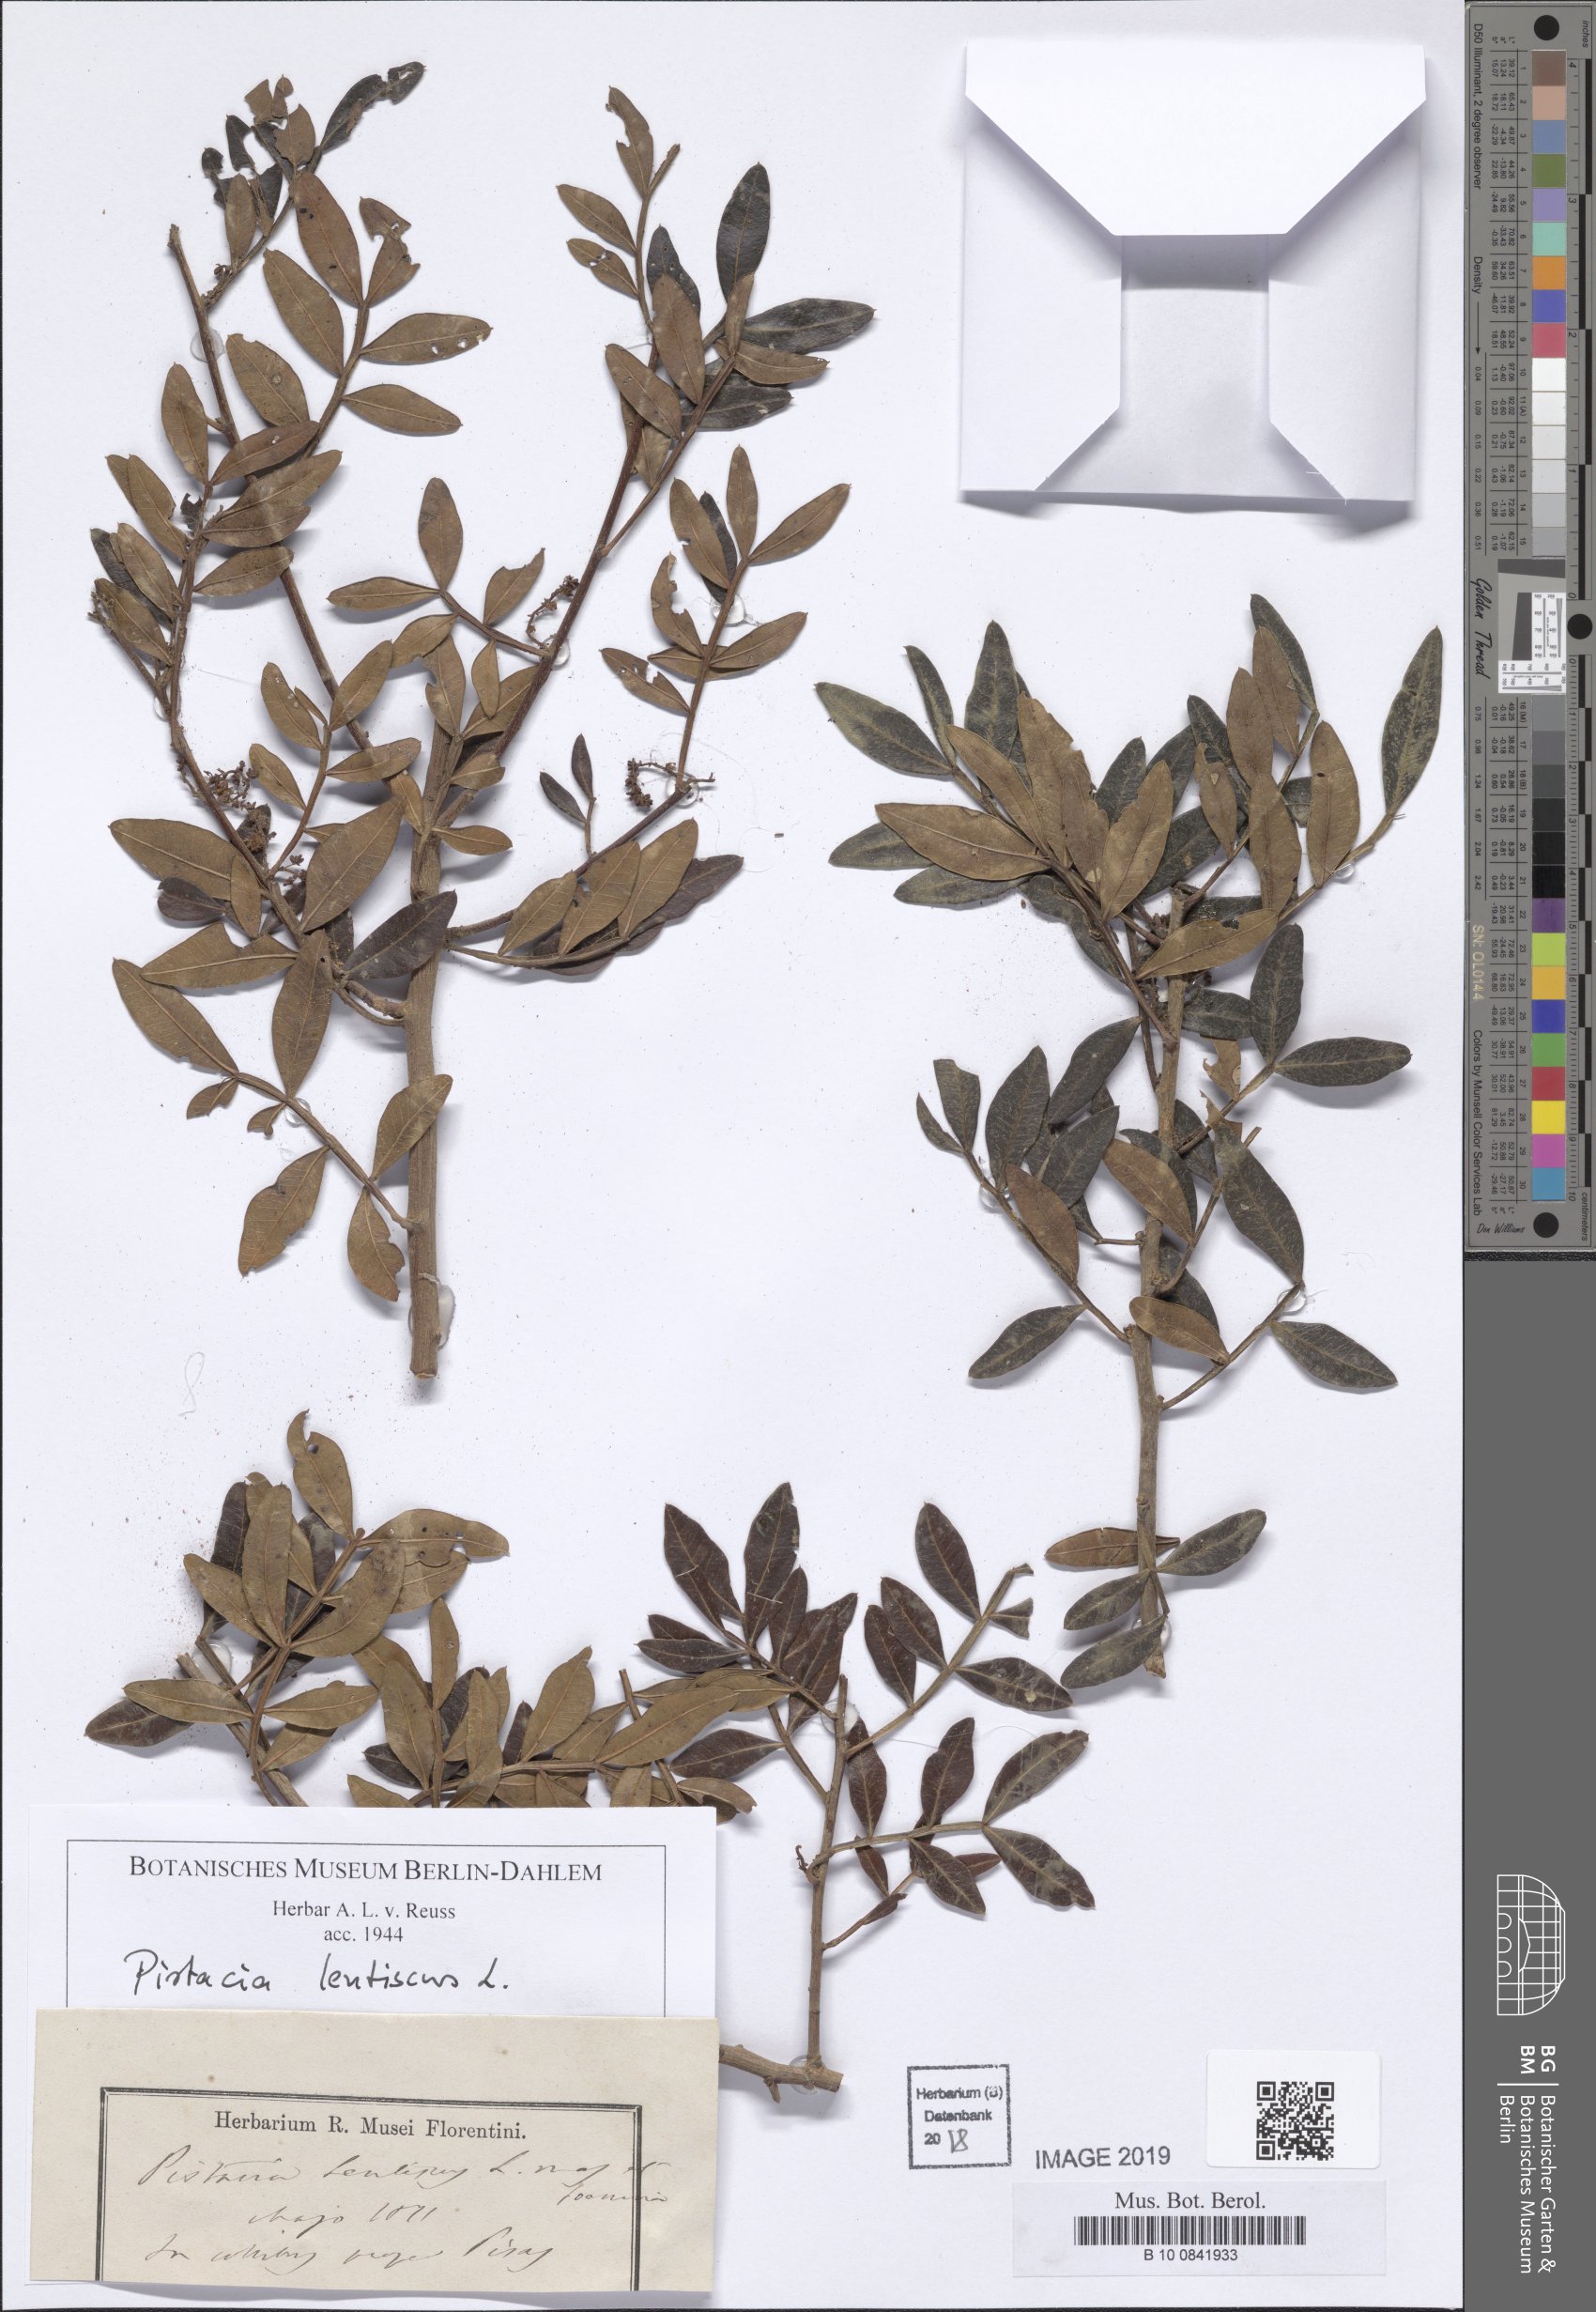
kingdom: Plantae
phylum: Tracheophyta
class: Magnoliopsida
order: Sapindales
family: Anacardiaceae
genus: Pistacia
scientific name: Pistacia lentiscus
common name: Lentisk
